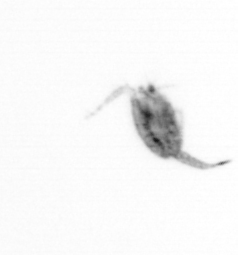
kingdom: Animalia
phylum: Arthropoda
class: Copepoda
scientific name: Copepoda
